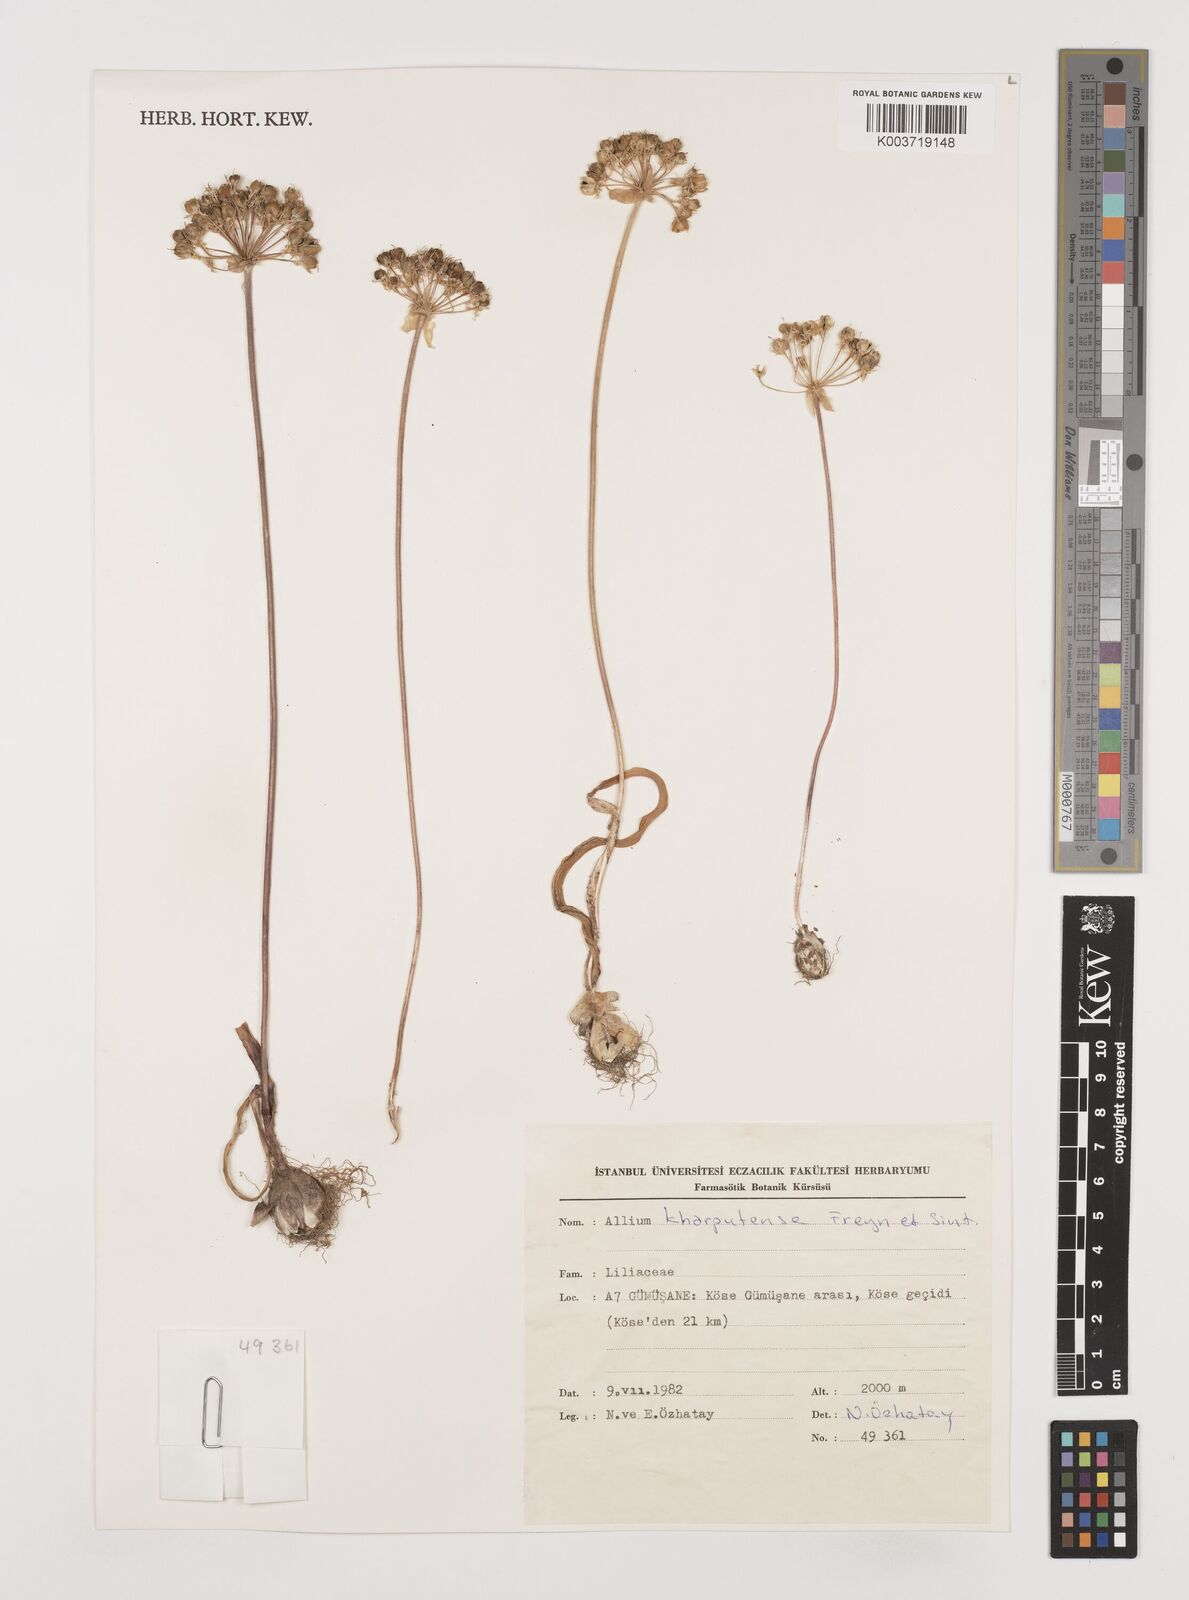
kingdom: Plantae
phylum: Tracheophyta
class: Liliopsida
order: Asparagales
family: Amaryllidaceae
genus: Allium
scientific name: Allium kharputense
